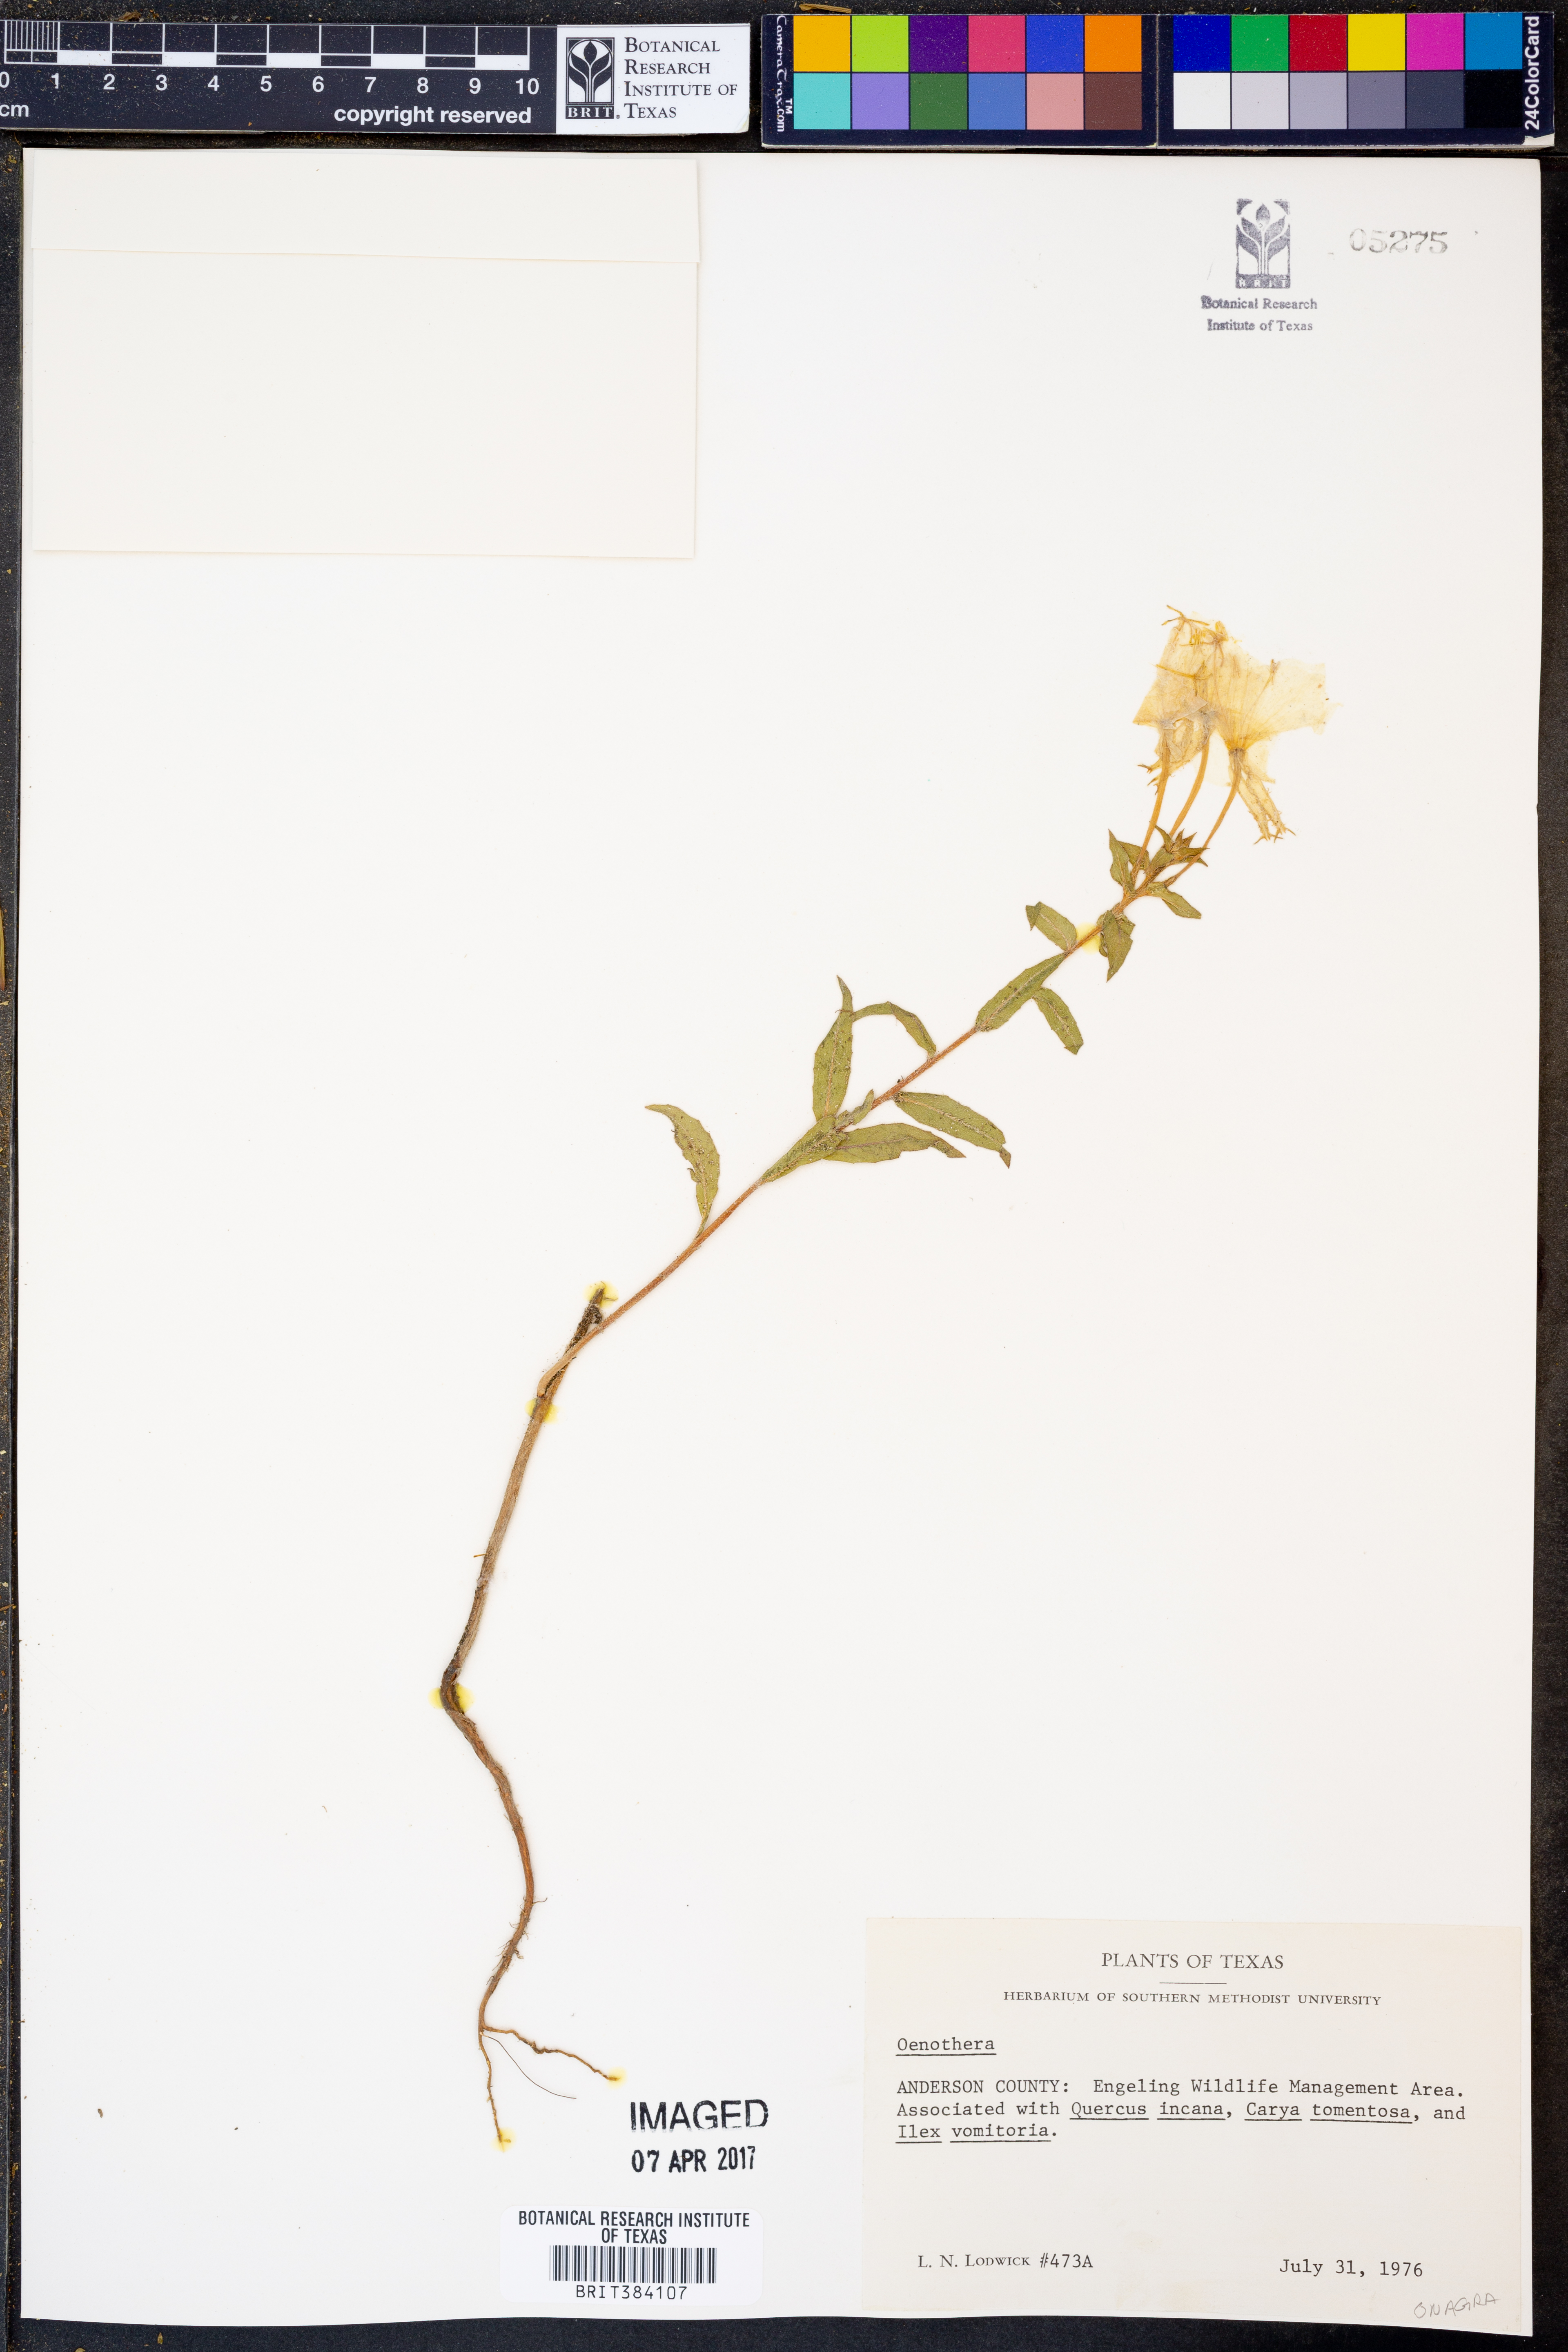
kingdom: Plantae
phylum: Tracheophyta
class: Magnoliopsida
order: Myrtales
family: Onagraceae
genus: Oenothera
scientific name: Oenothera
